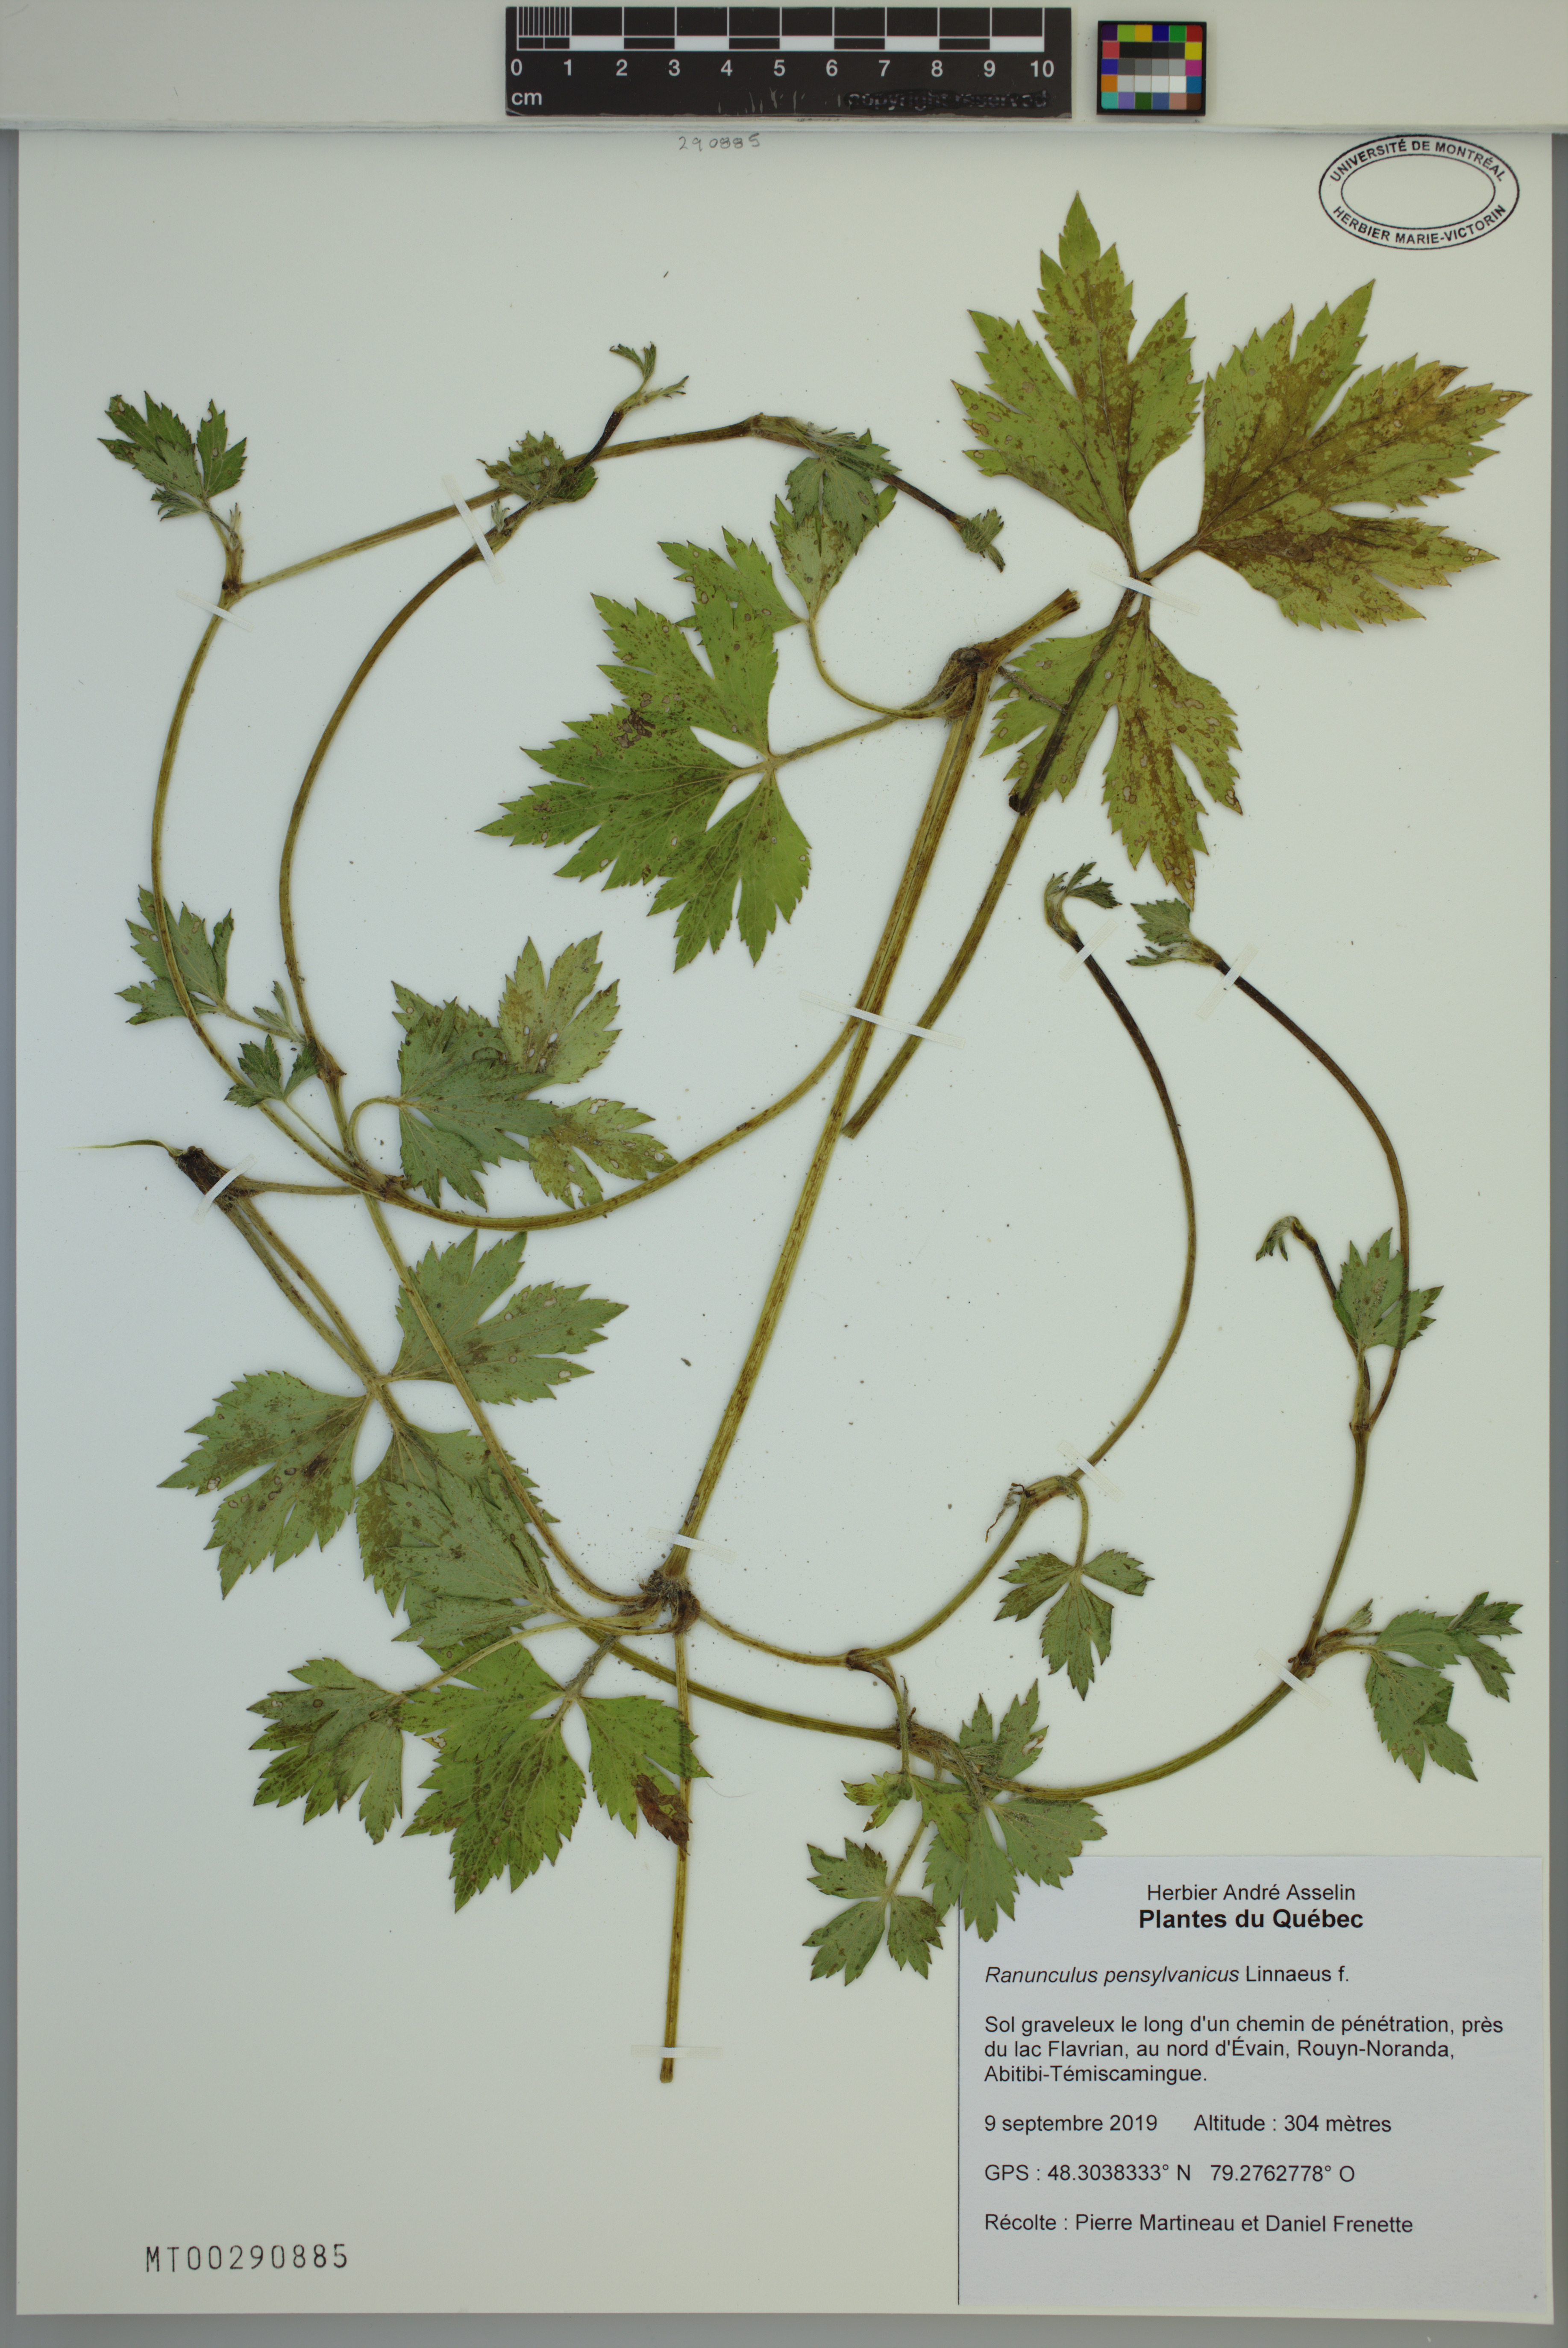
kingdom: Plantae
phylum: Tracheophyta
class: Magnoliopsida
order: Ranunculales
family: Ranunculaceae
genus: Ranunculus
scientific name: Ranunculus pensylvanicus
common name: Bristly buttercup
